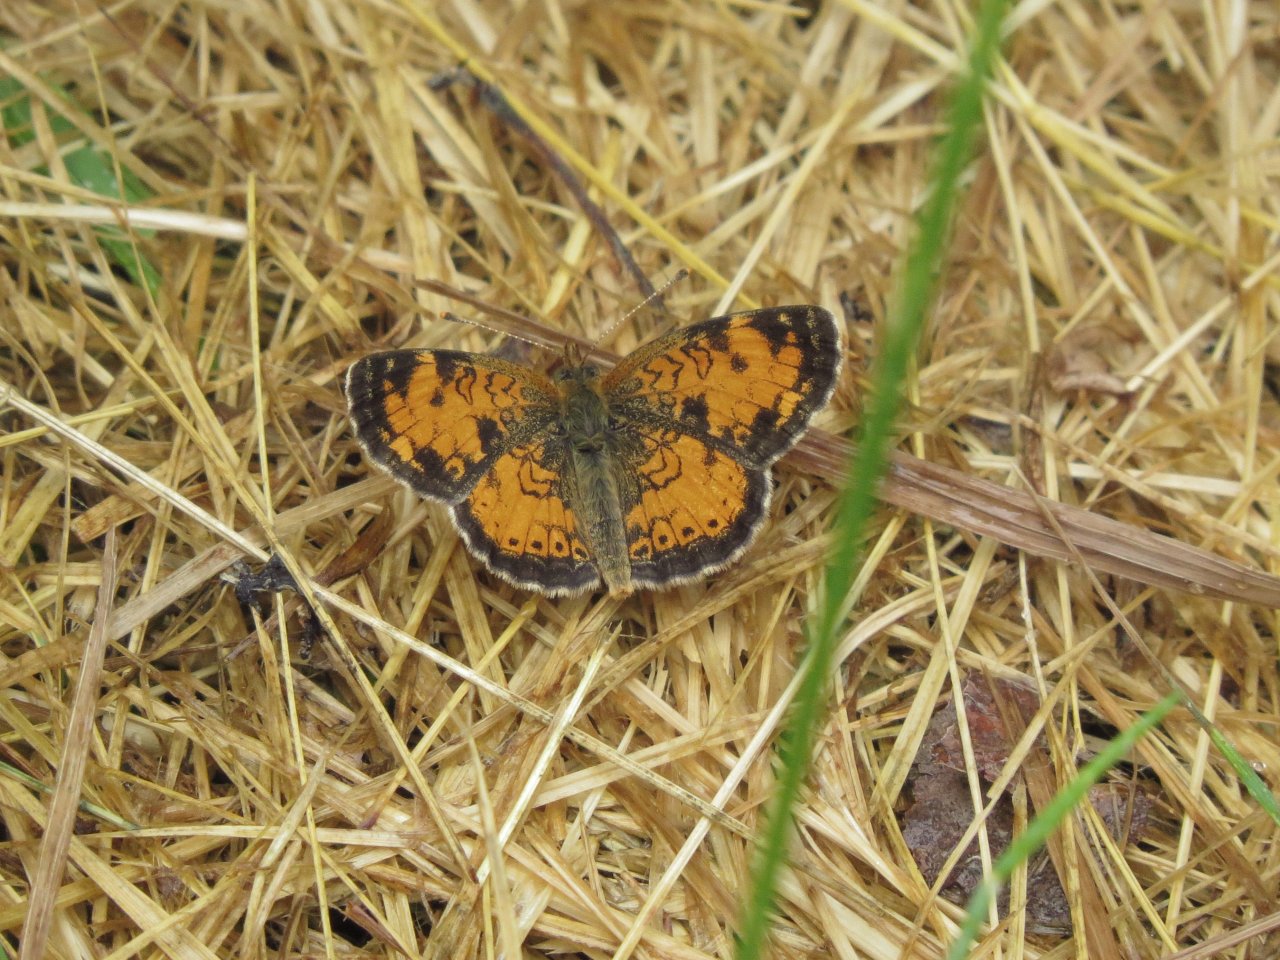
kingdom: Animalia
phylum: Arthropoda
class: Insecta
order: Lepidoptera
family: Nymphalidae
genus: Phyciodes
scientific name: Phyciodes tharos
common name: Northern Crescent
